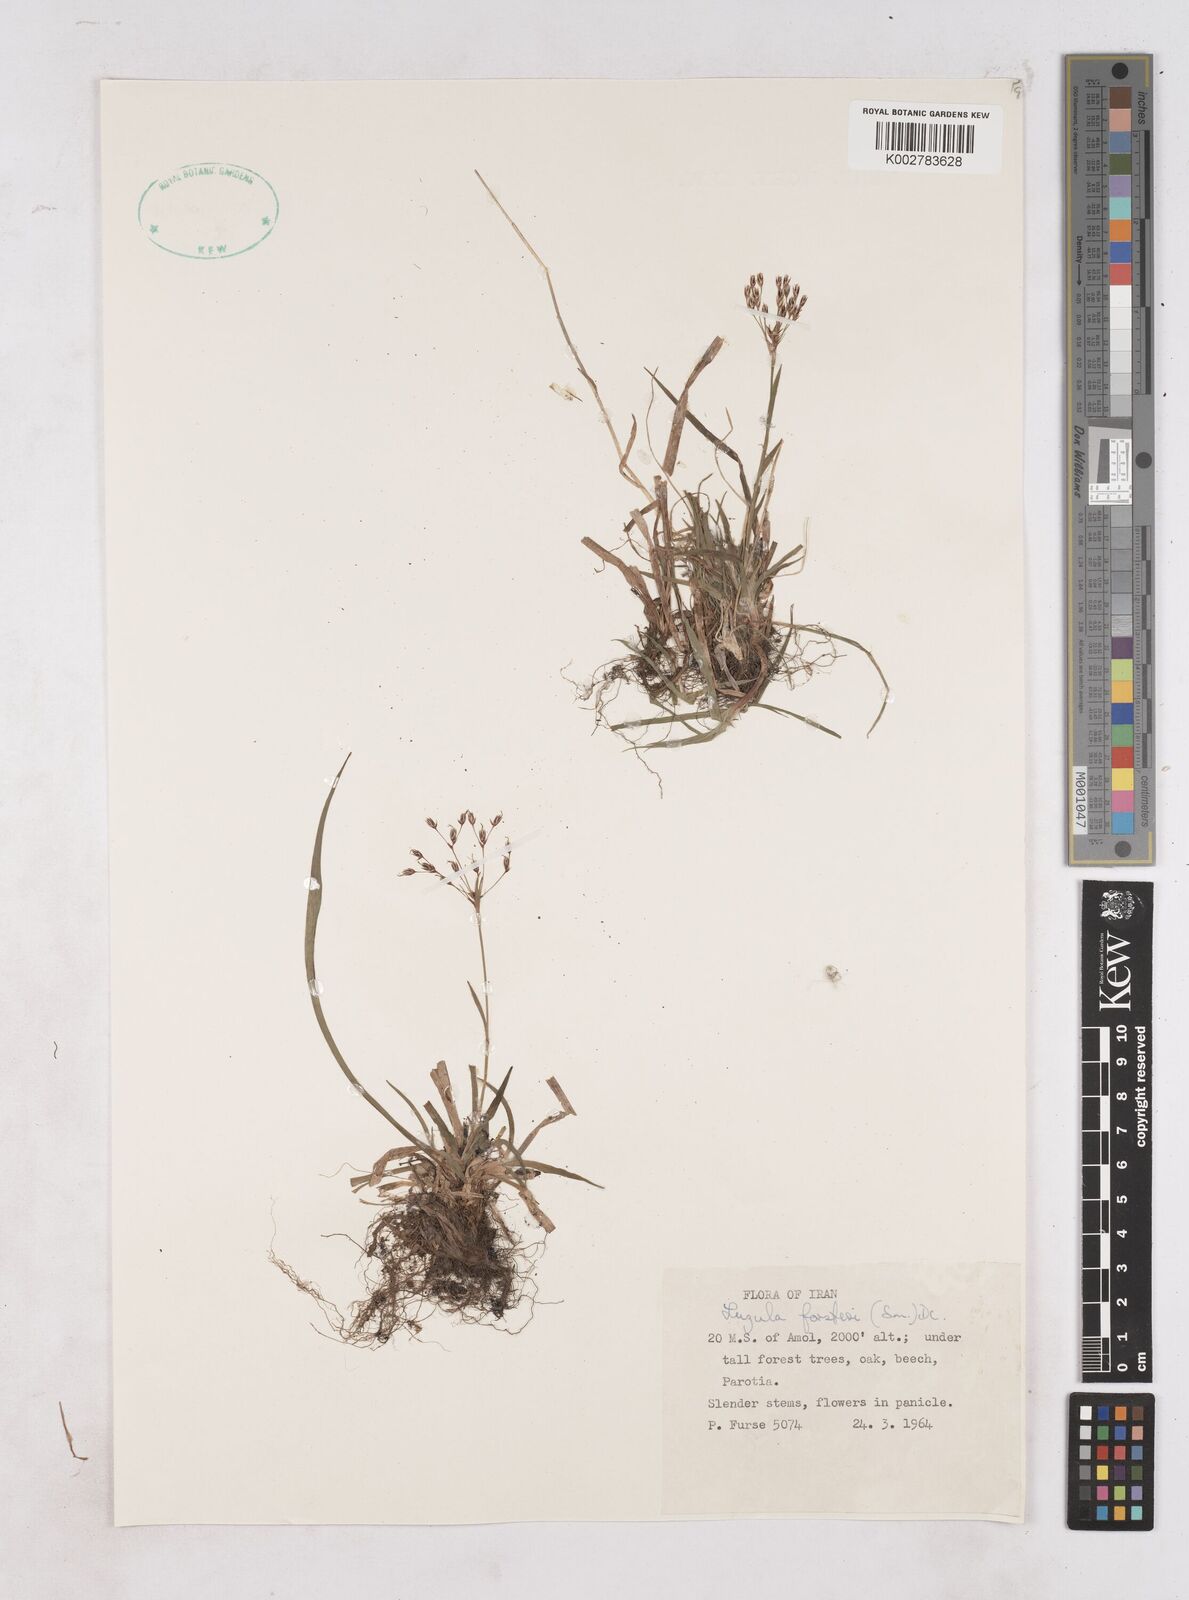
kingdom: Plantae
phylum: Tracheophyta
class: Liliopsida
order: Poales
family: Juncaceae
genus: Luzula
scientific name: Luzula forsteri
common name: Southern wood-rush
